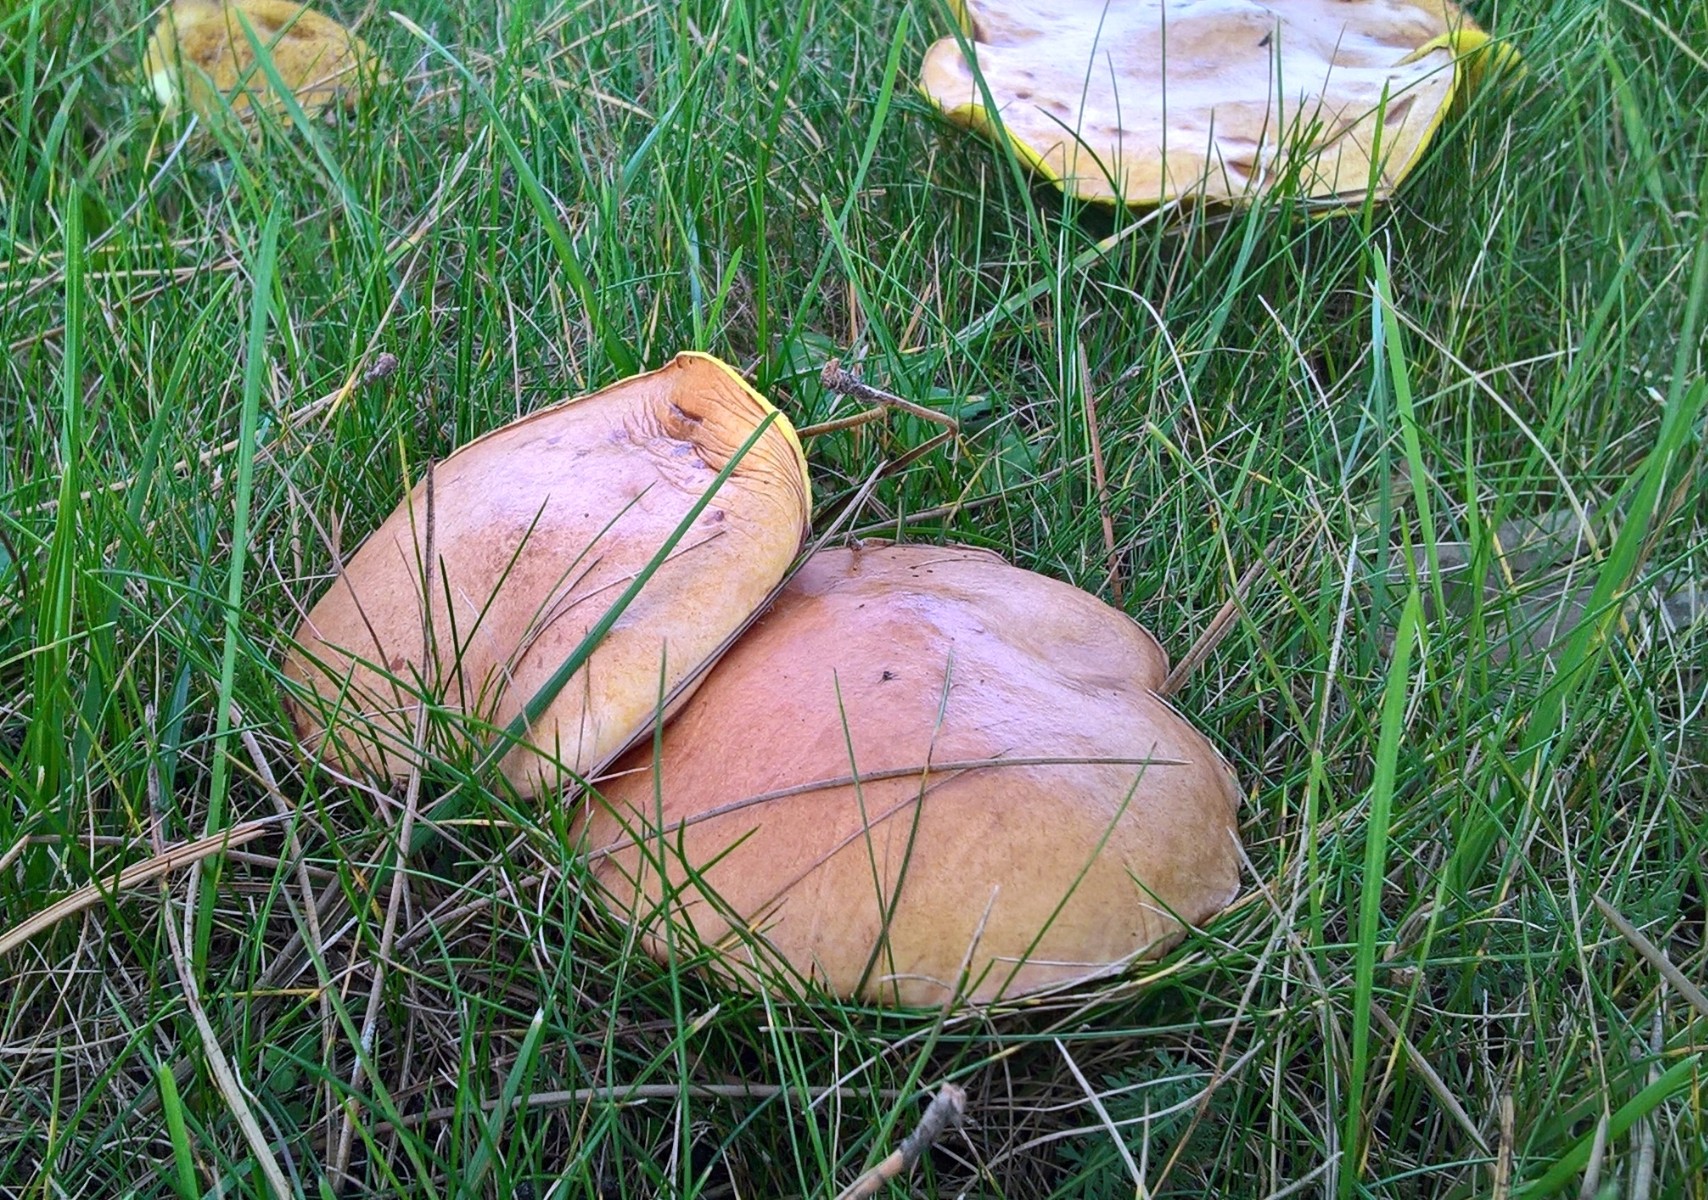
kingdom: Fungi
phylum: Basidiomycota
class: Agaricomycetes
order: Boletales
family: Suillaceae
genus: Suillus
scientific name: Suillus
